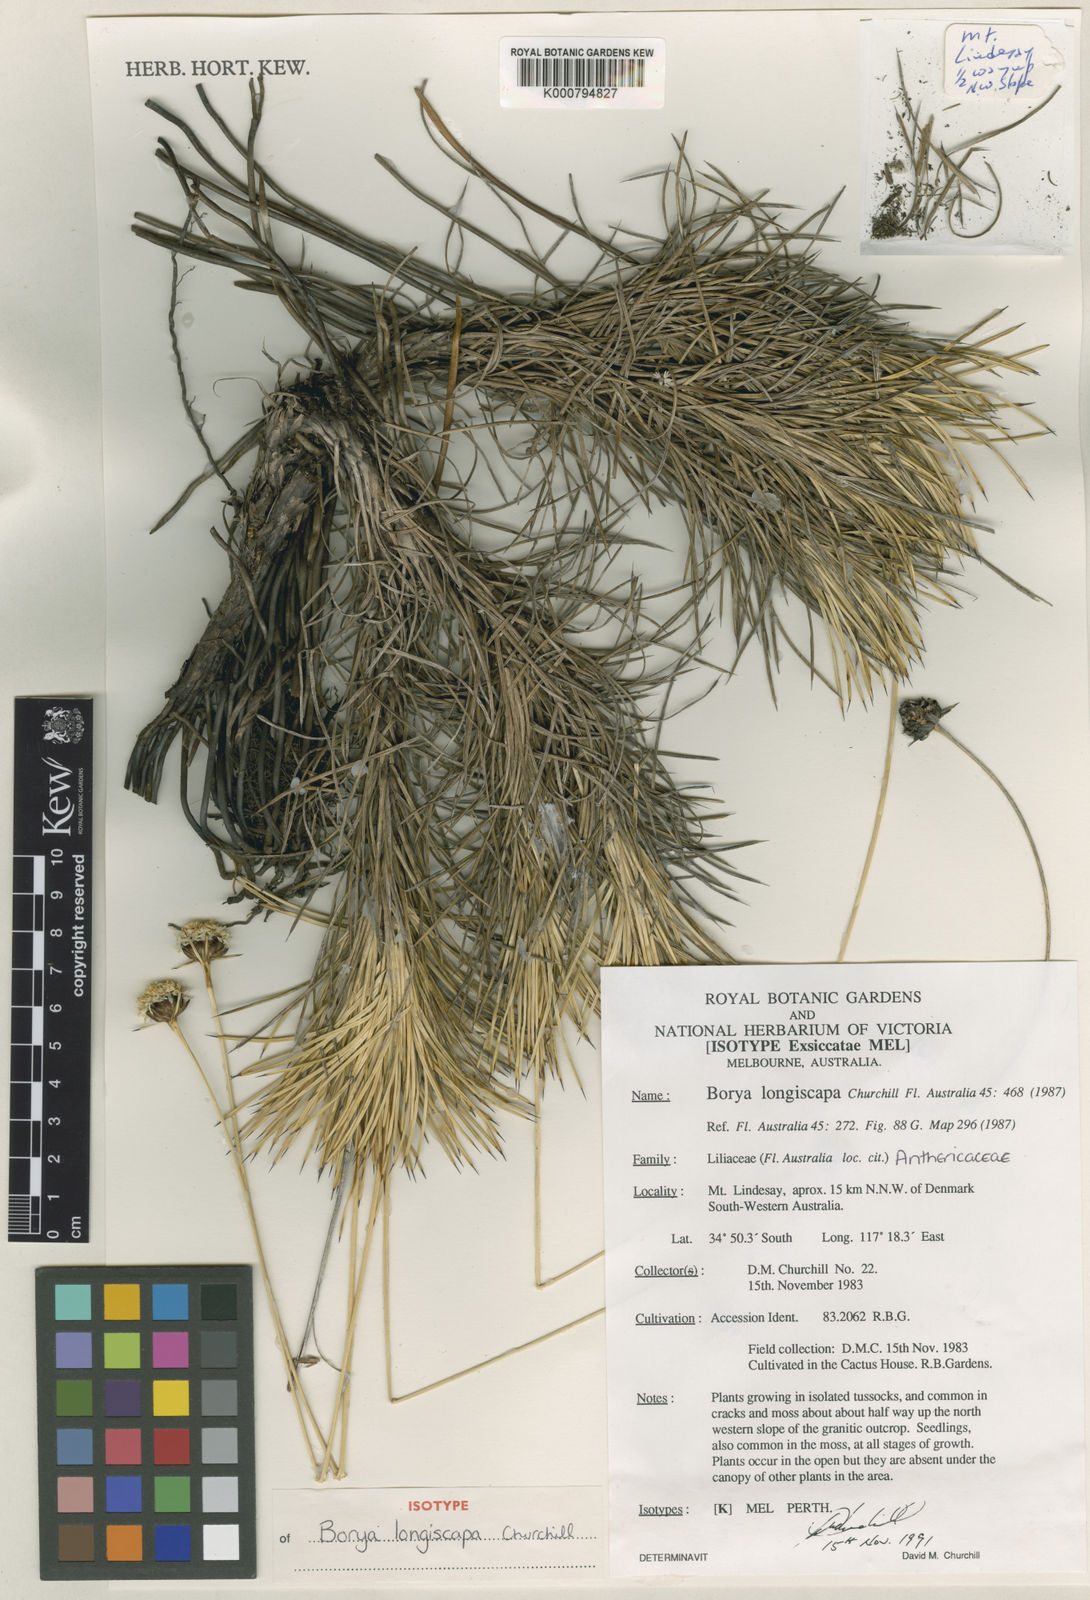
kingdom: Plantae
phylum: Tracheophyta
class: Liliopsida
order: Asparagales
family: Boryaceae
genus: Borya
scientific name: Borya longiscapa
